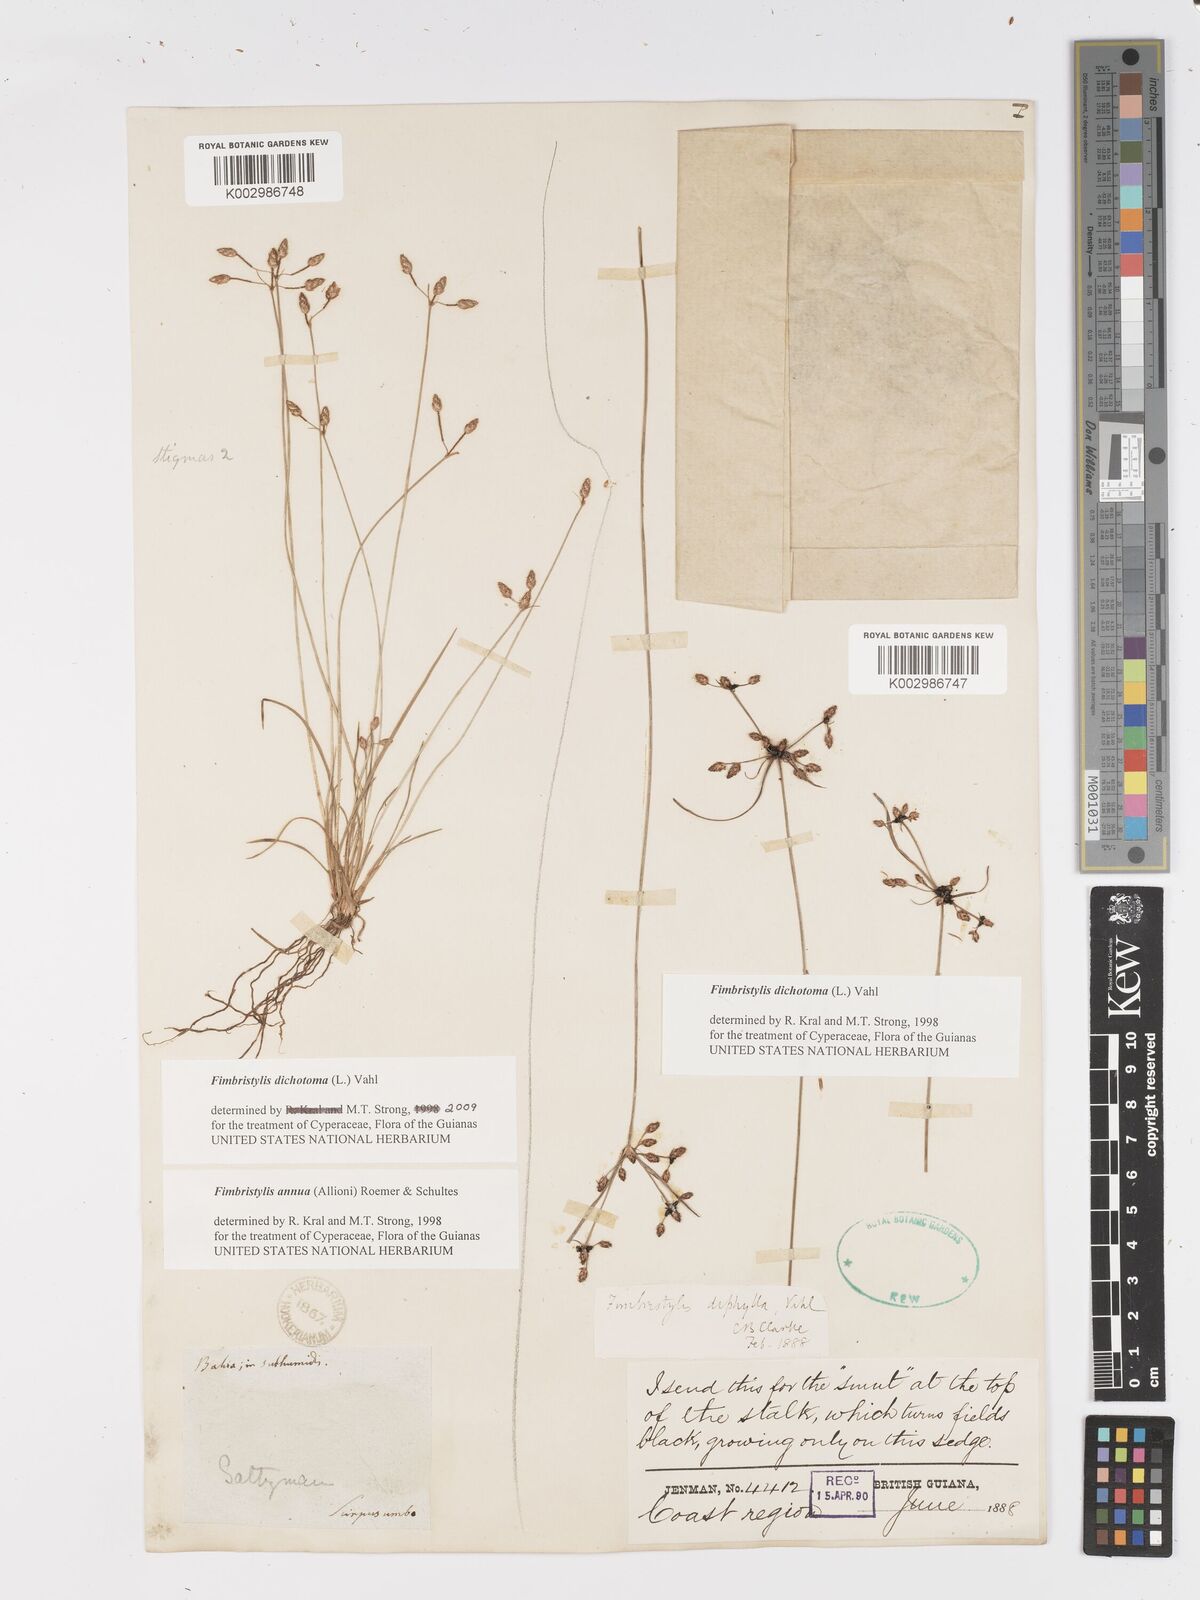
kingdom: Plantae
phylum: Tracheophyta
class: Liliopsida
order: Poales
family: Cyperaceae
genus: Fimbristylis
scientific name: Fimbristylis dichotoma
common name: Forked fimbry
